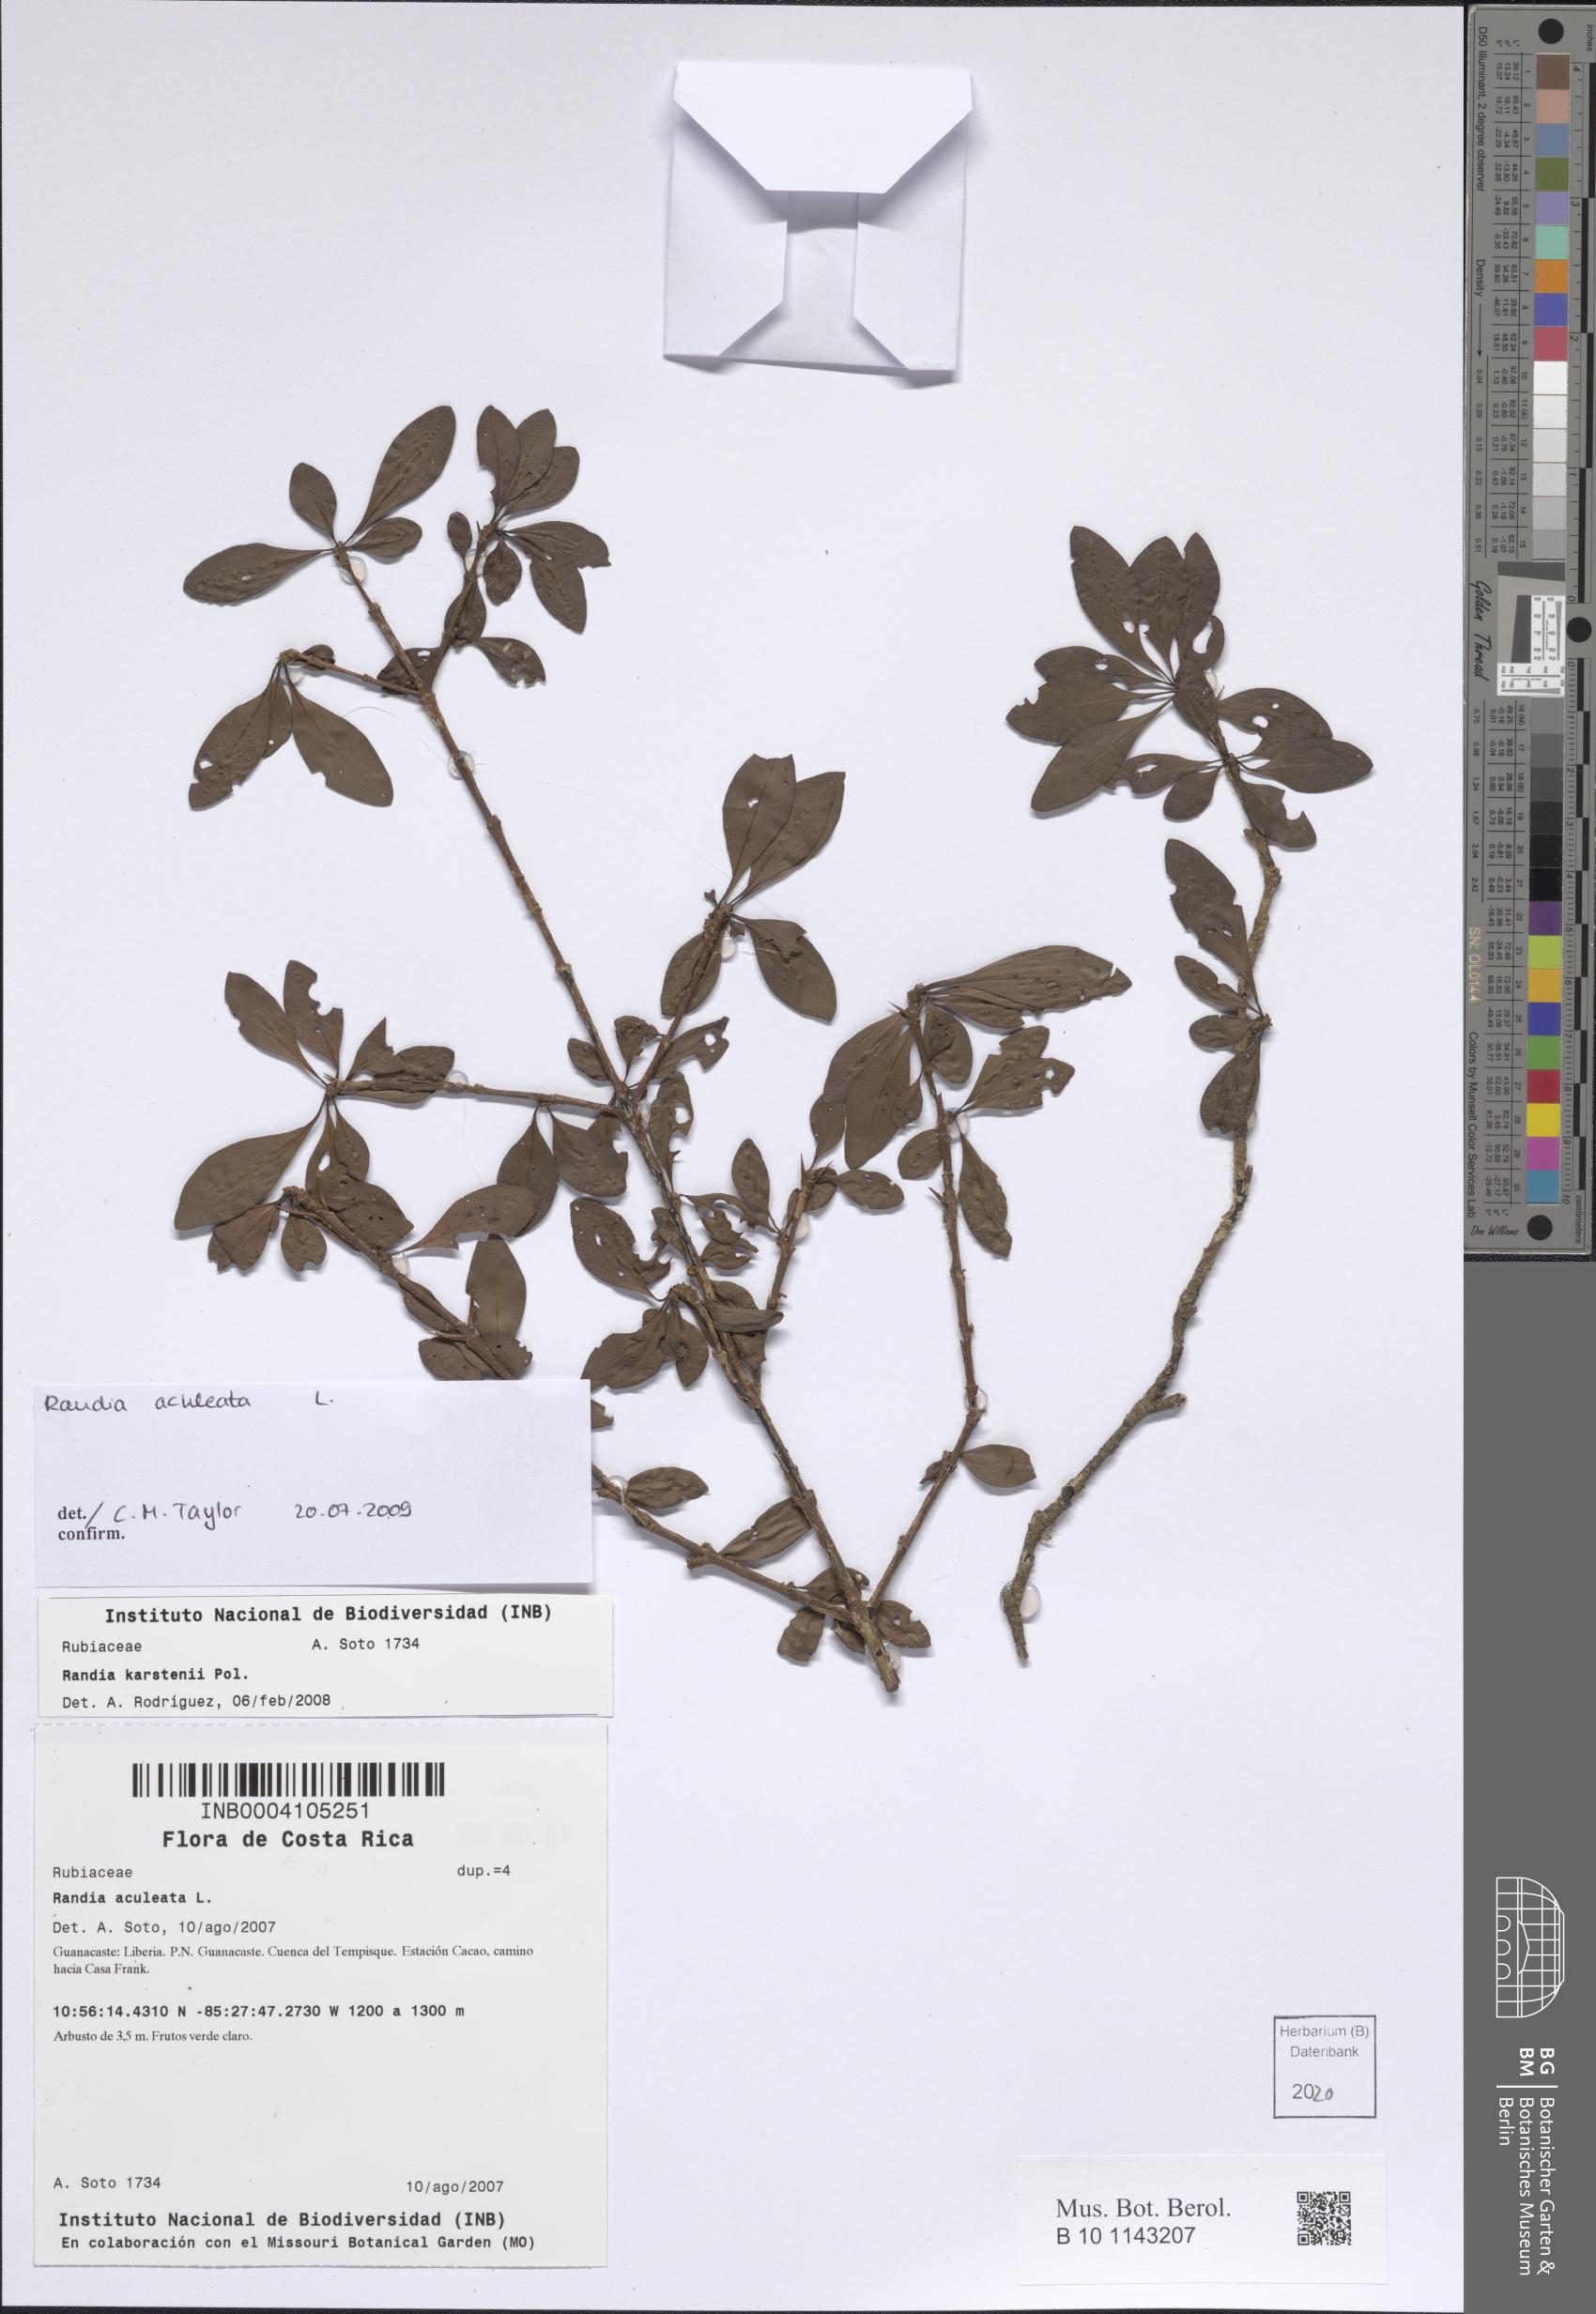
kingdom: Plantae
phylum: Tracheophyta
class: Magnoliopsida
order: Gentianales
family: Rubiaceae
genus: Randia
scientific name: Randia aculeata
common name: Inkberry
